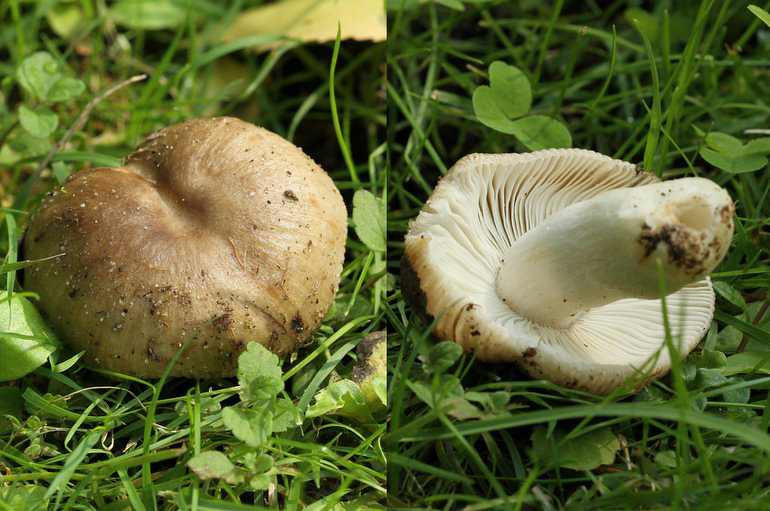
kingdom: Fungi
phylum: Basidiomycota
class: Agaricomycetes
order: Russulales
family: Russulaceae
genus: Russula
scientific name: Russula recondita
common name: mild kam-skørhat
